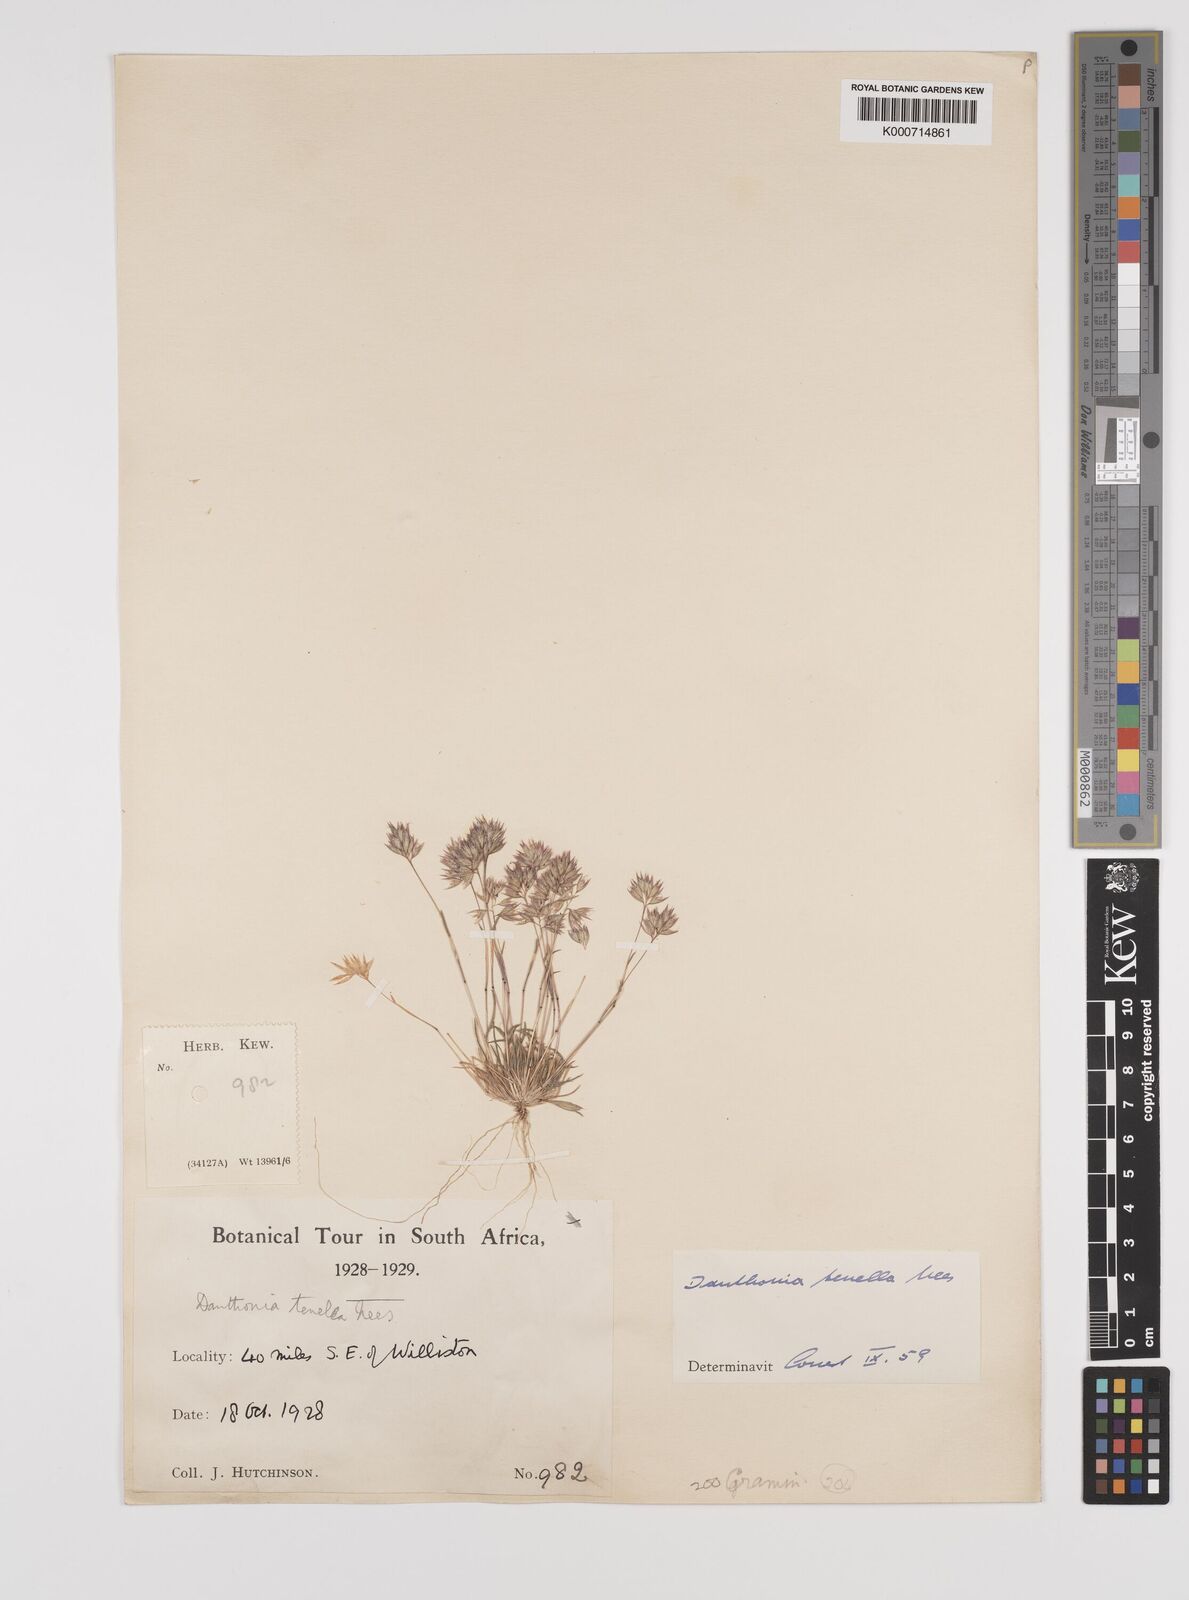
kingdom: Plantae
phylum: Tracheophyta
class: Liliopsida
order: Poales
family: Poaceae
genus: Rytidosperma
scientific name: Rytidosperma
